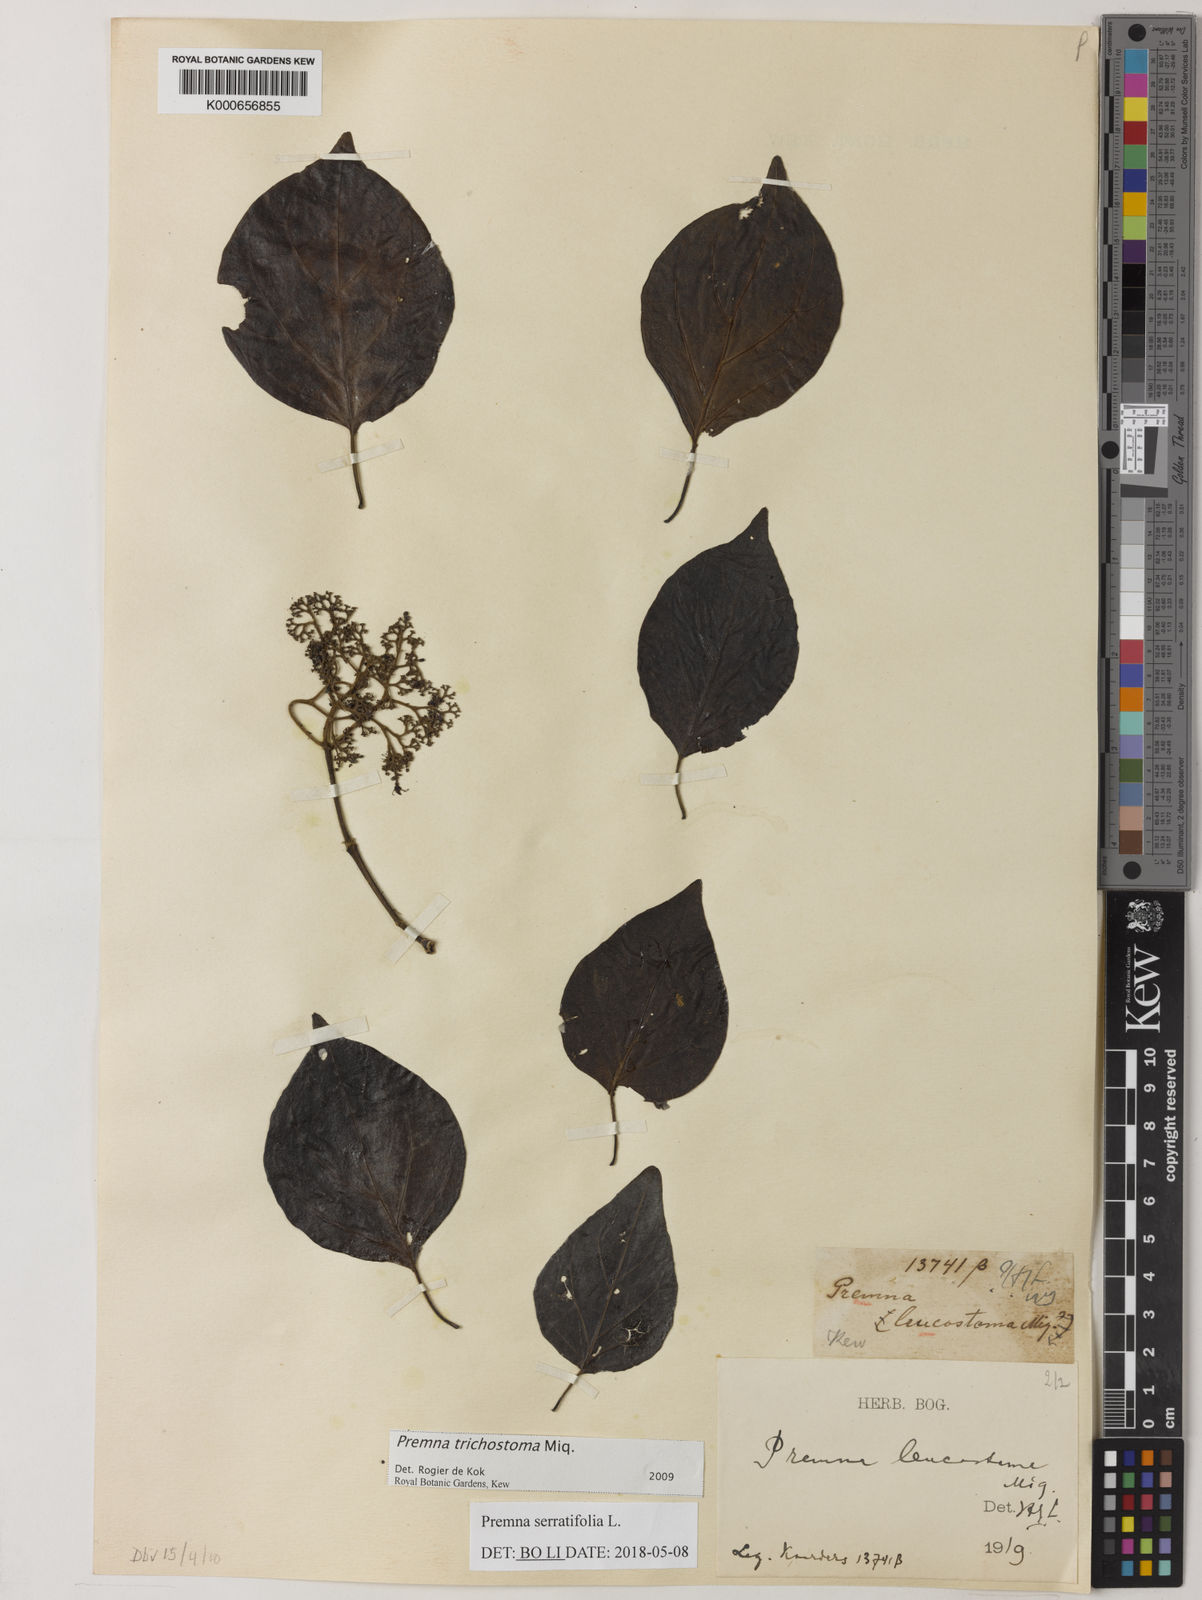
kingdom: Plantae
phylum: Tracheophyta
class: Magnoliopsida
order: Lamiales
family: Lamiaceae
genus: Premna
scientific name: Premna trichostoma
